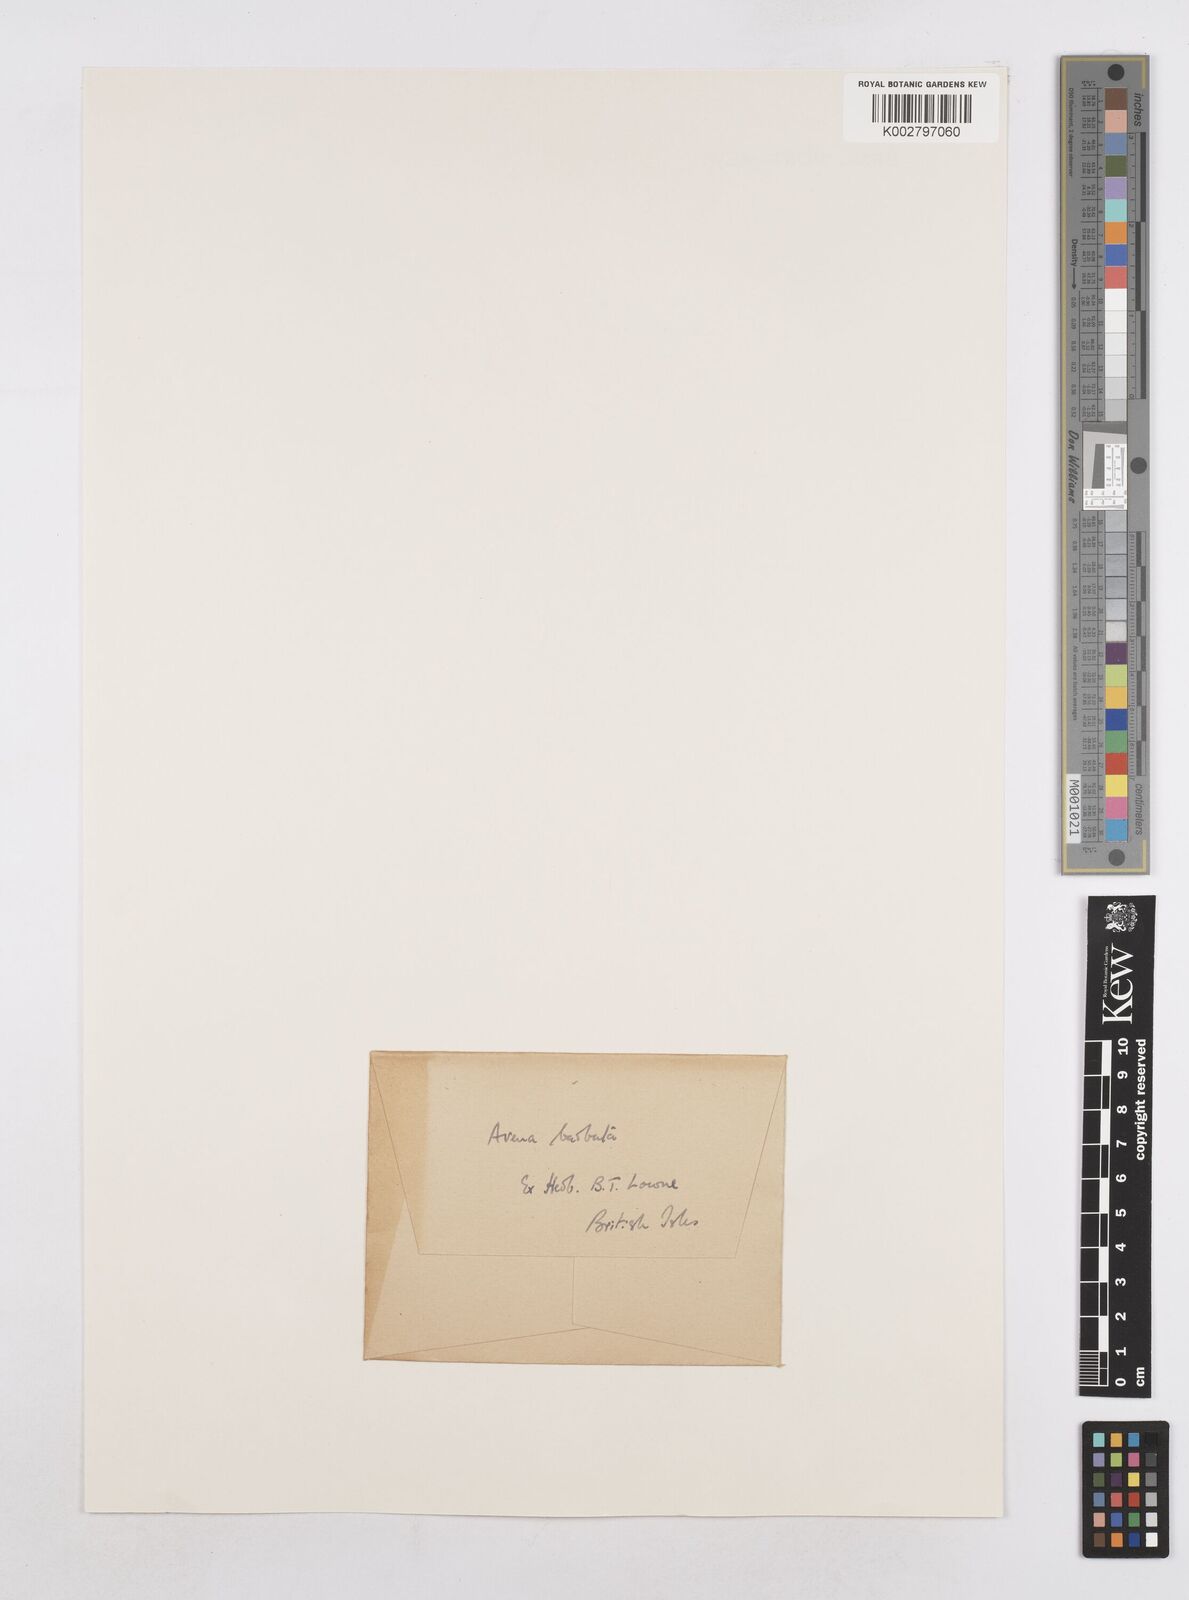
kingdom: Plantae
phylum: Tracheophyta
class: Liliopsida
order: Poales
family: Poaceae
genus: Avena
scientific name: Avena
